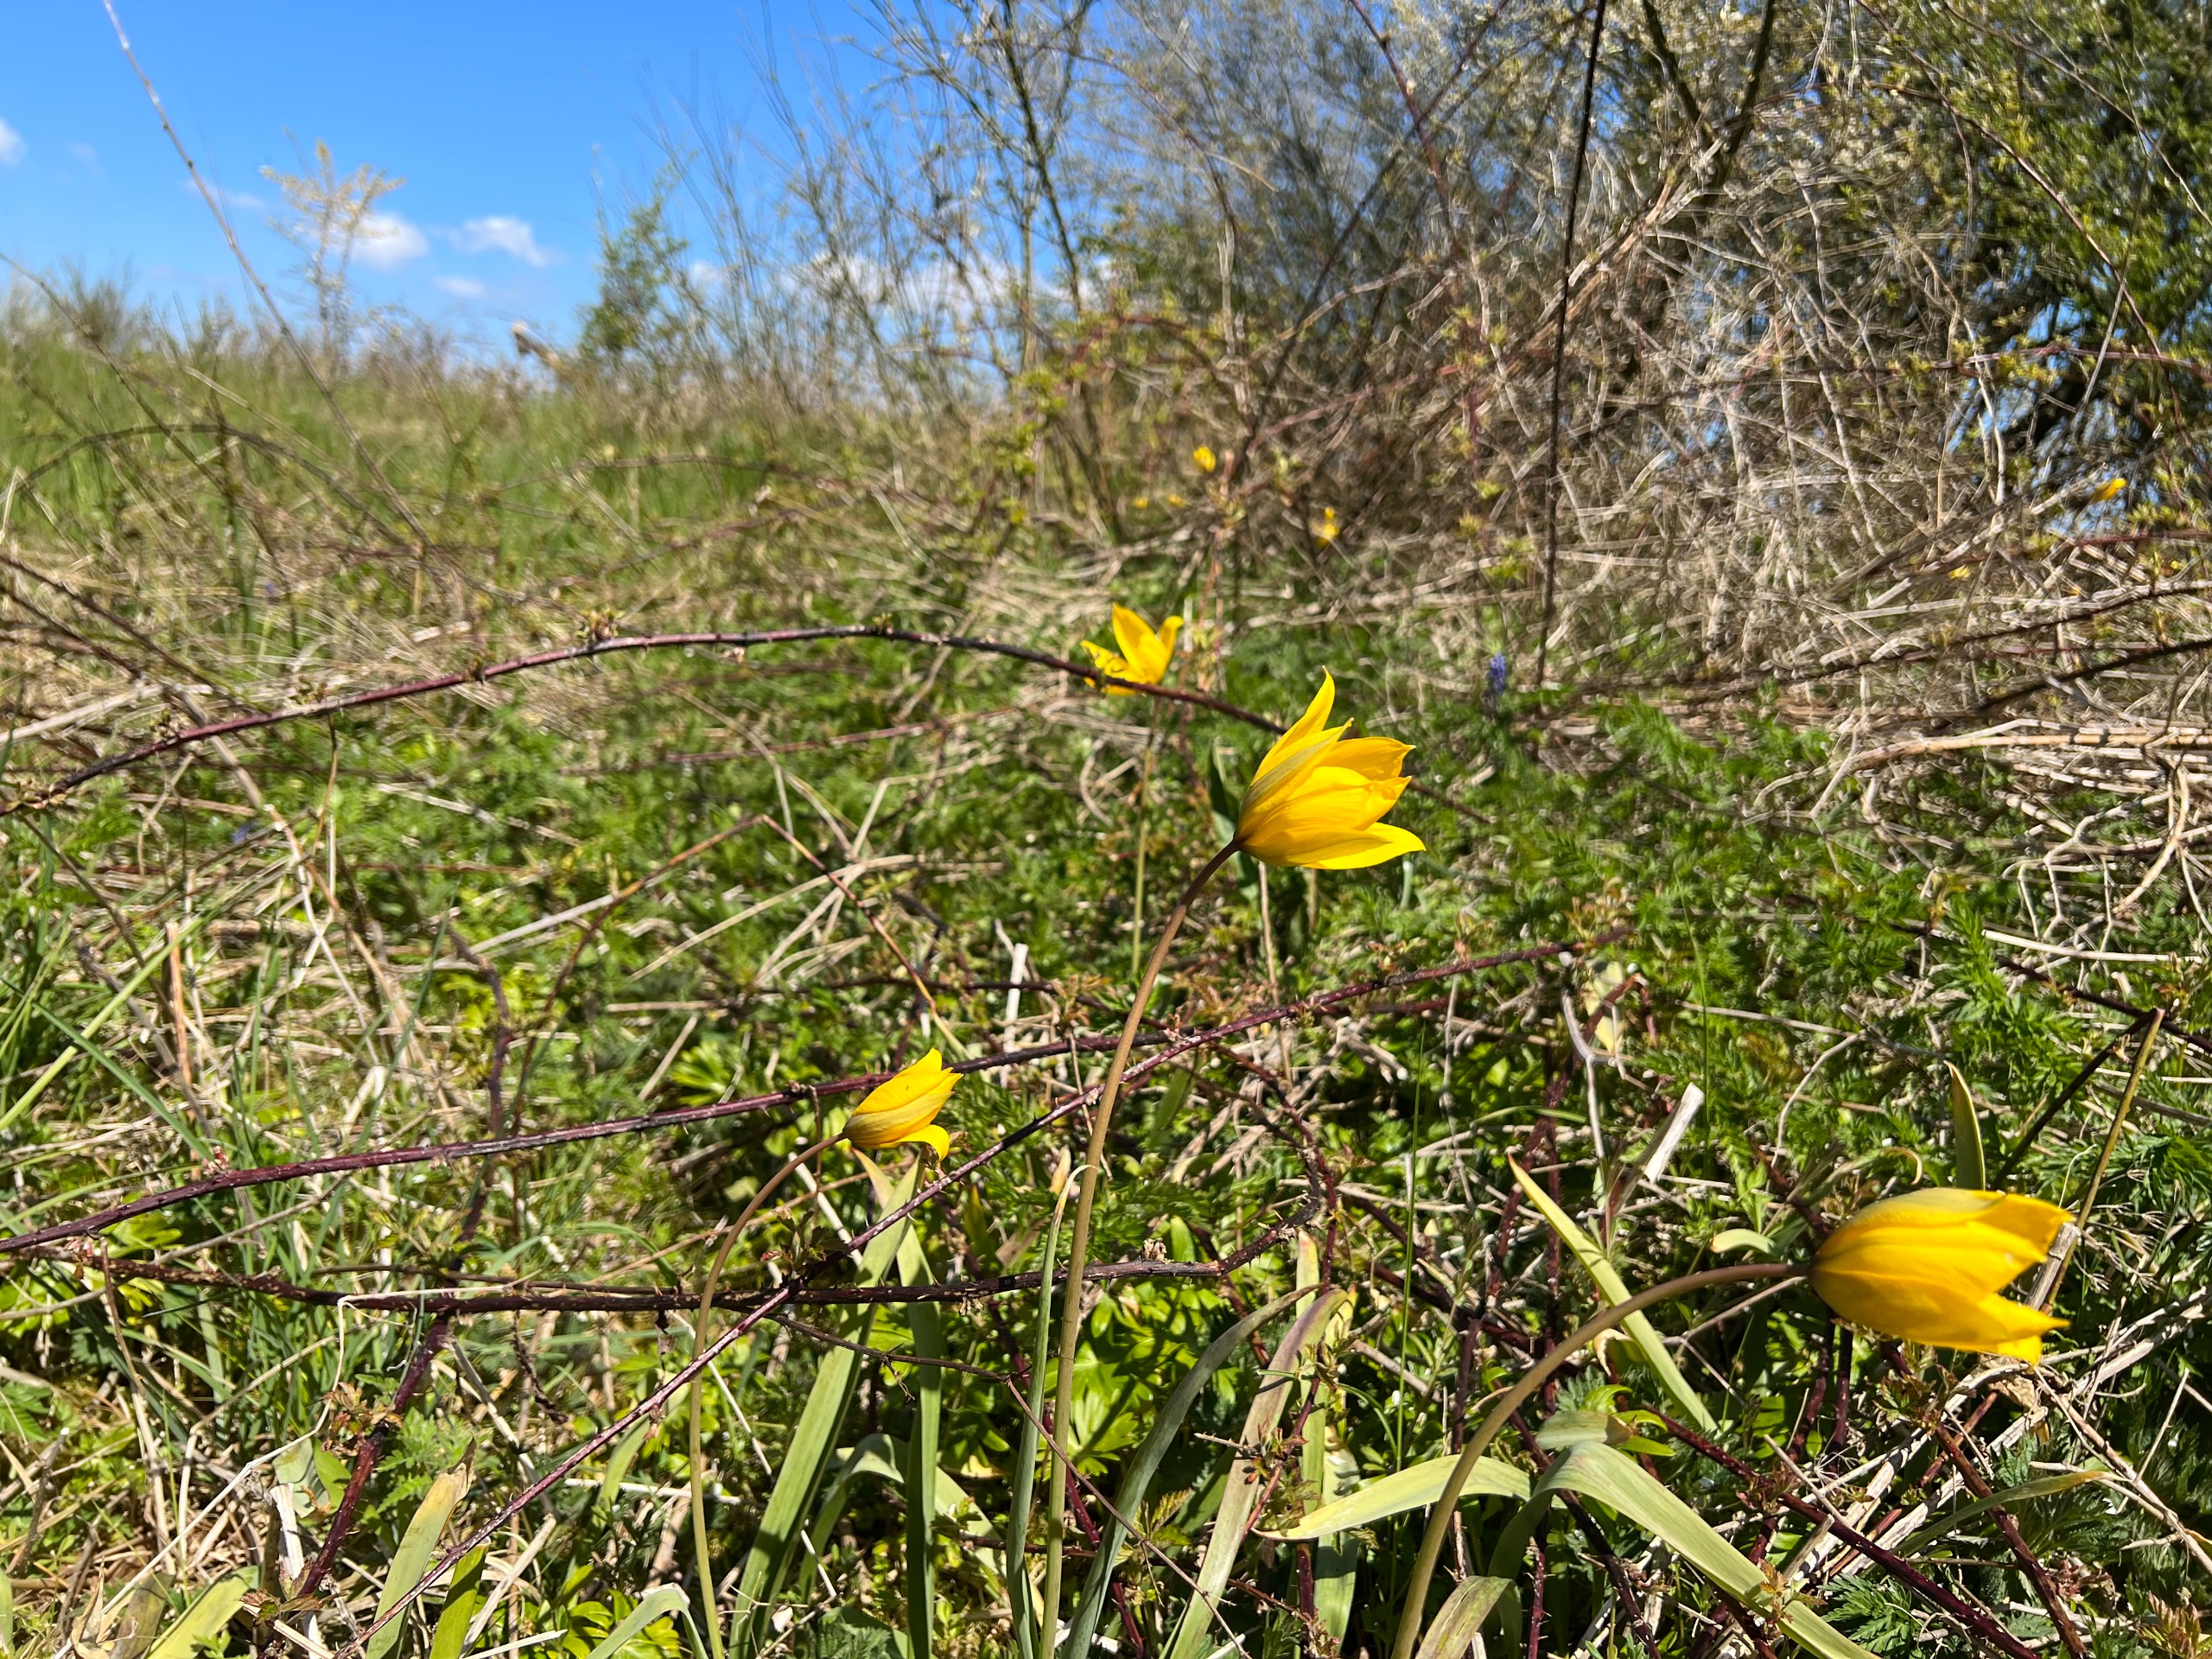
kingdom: Plantae
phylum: Tracheophyta
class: Liliopsida
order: Liliales
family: Liliaceae
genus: Tulipa
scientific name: Tulipa sylvestris
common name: Vild tulipan
